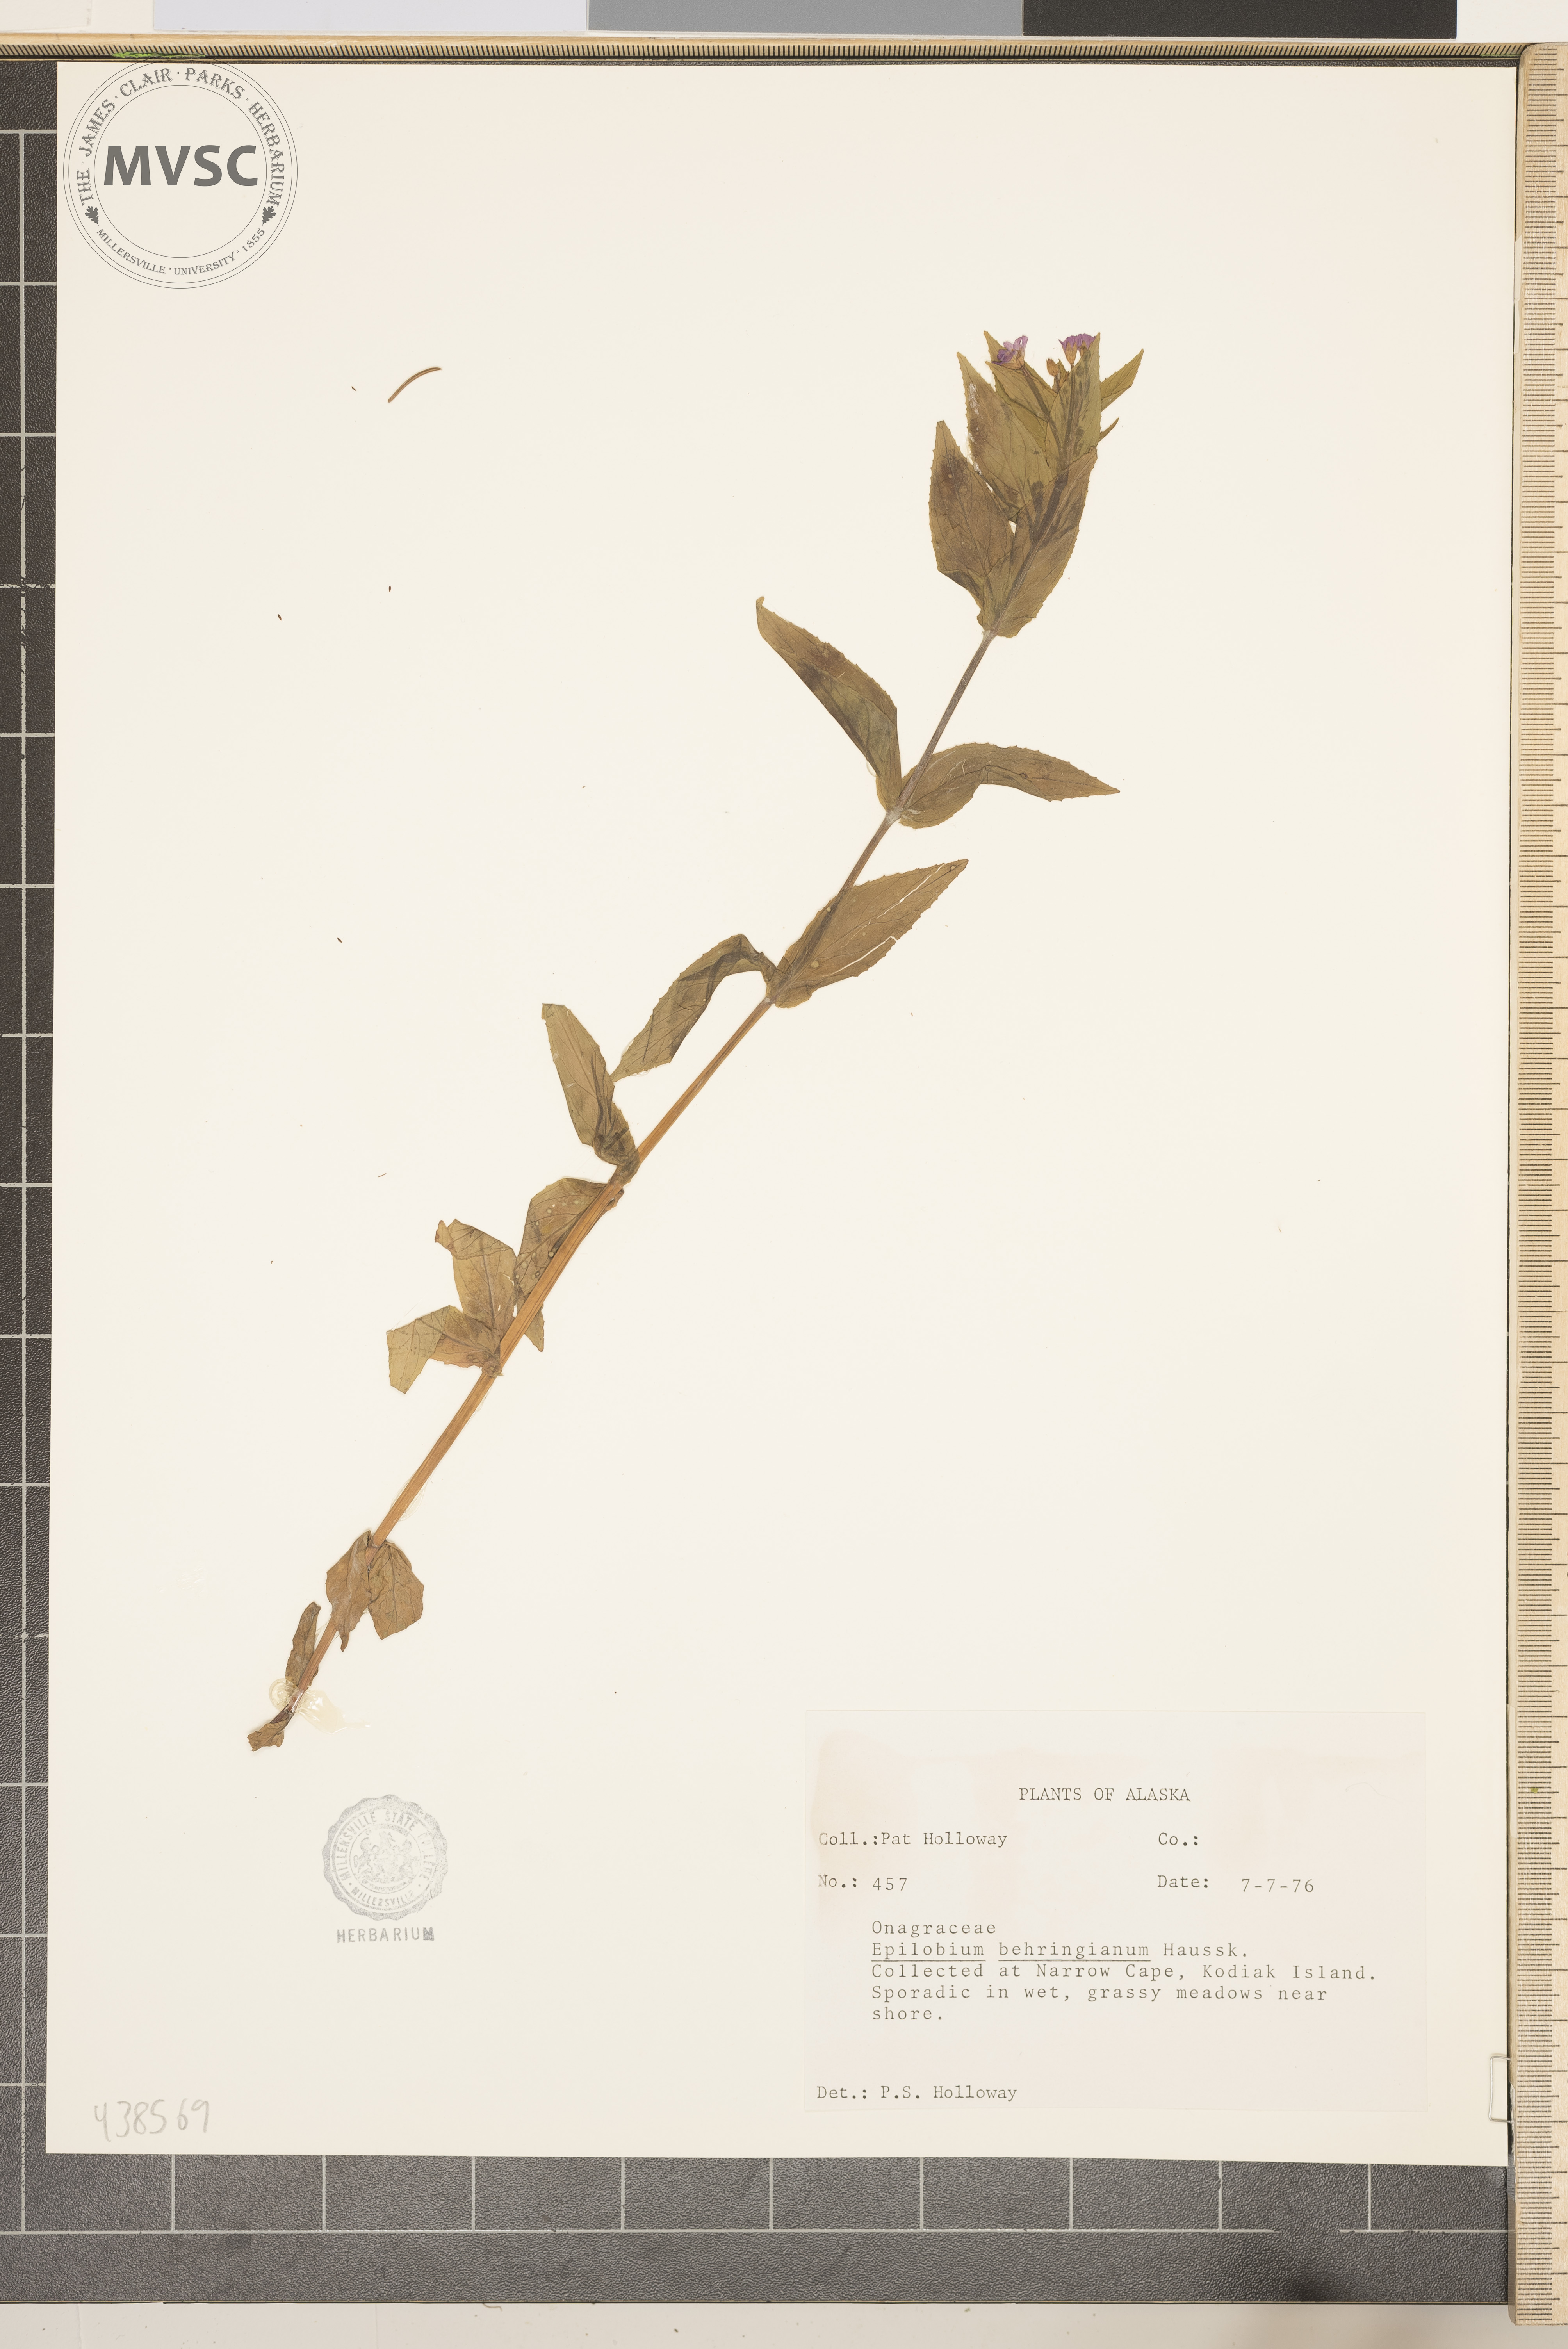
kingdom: Plantae
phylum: Tracheophyta
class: Magnoliopsida
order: Myrtales
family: Onagraceae
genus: Epilobium
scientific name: Epilobium hornemannii
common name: Hornemann's willowherb
